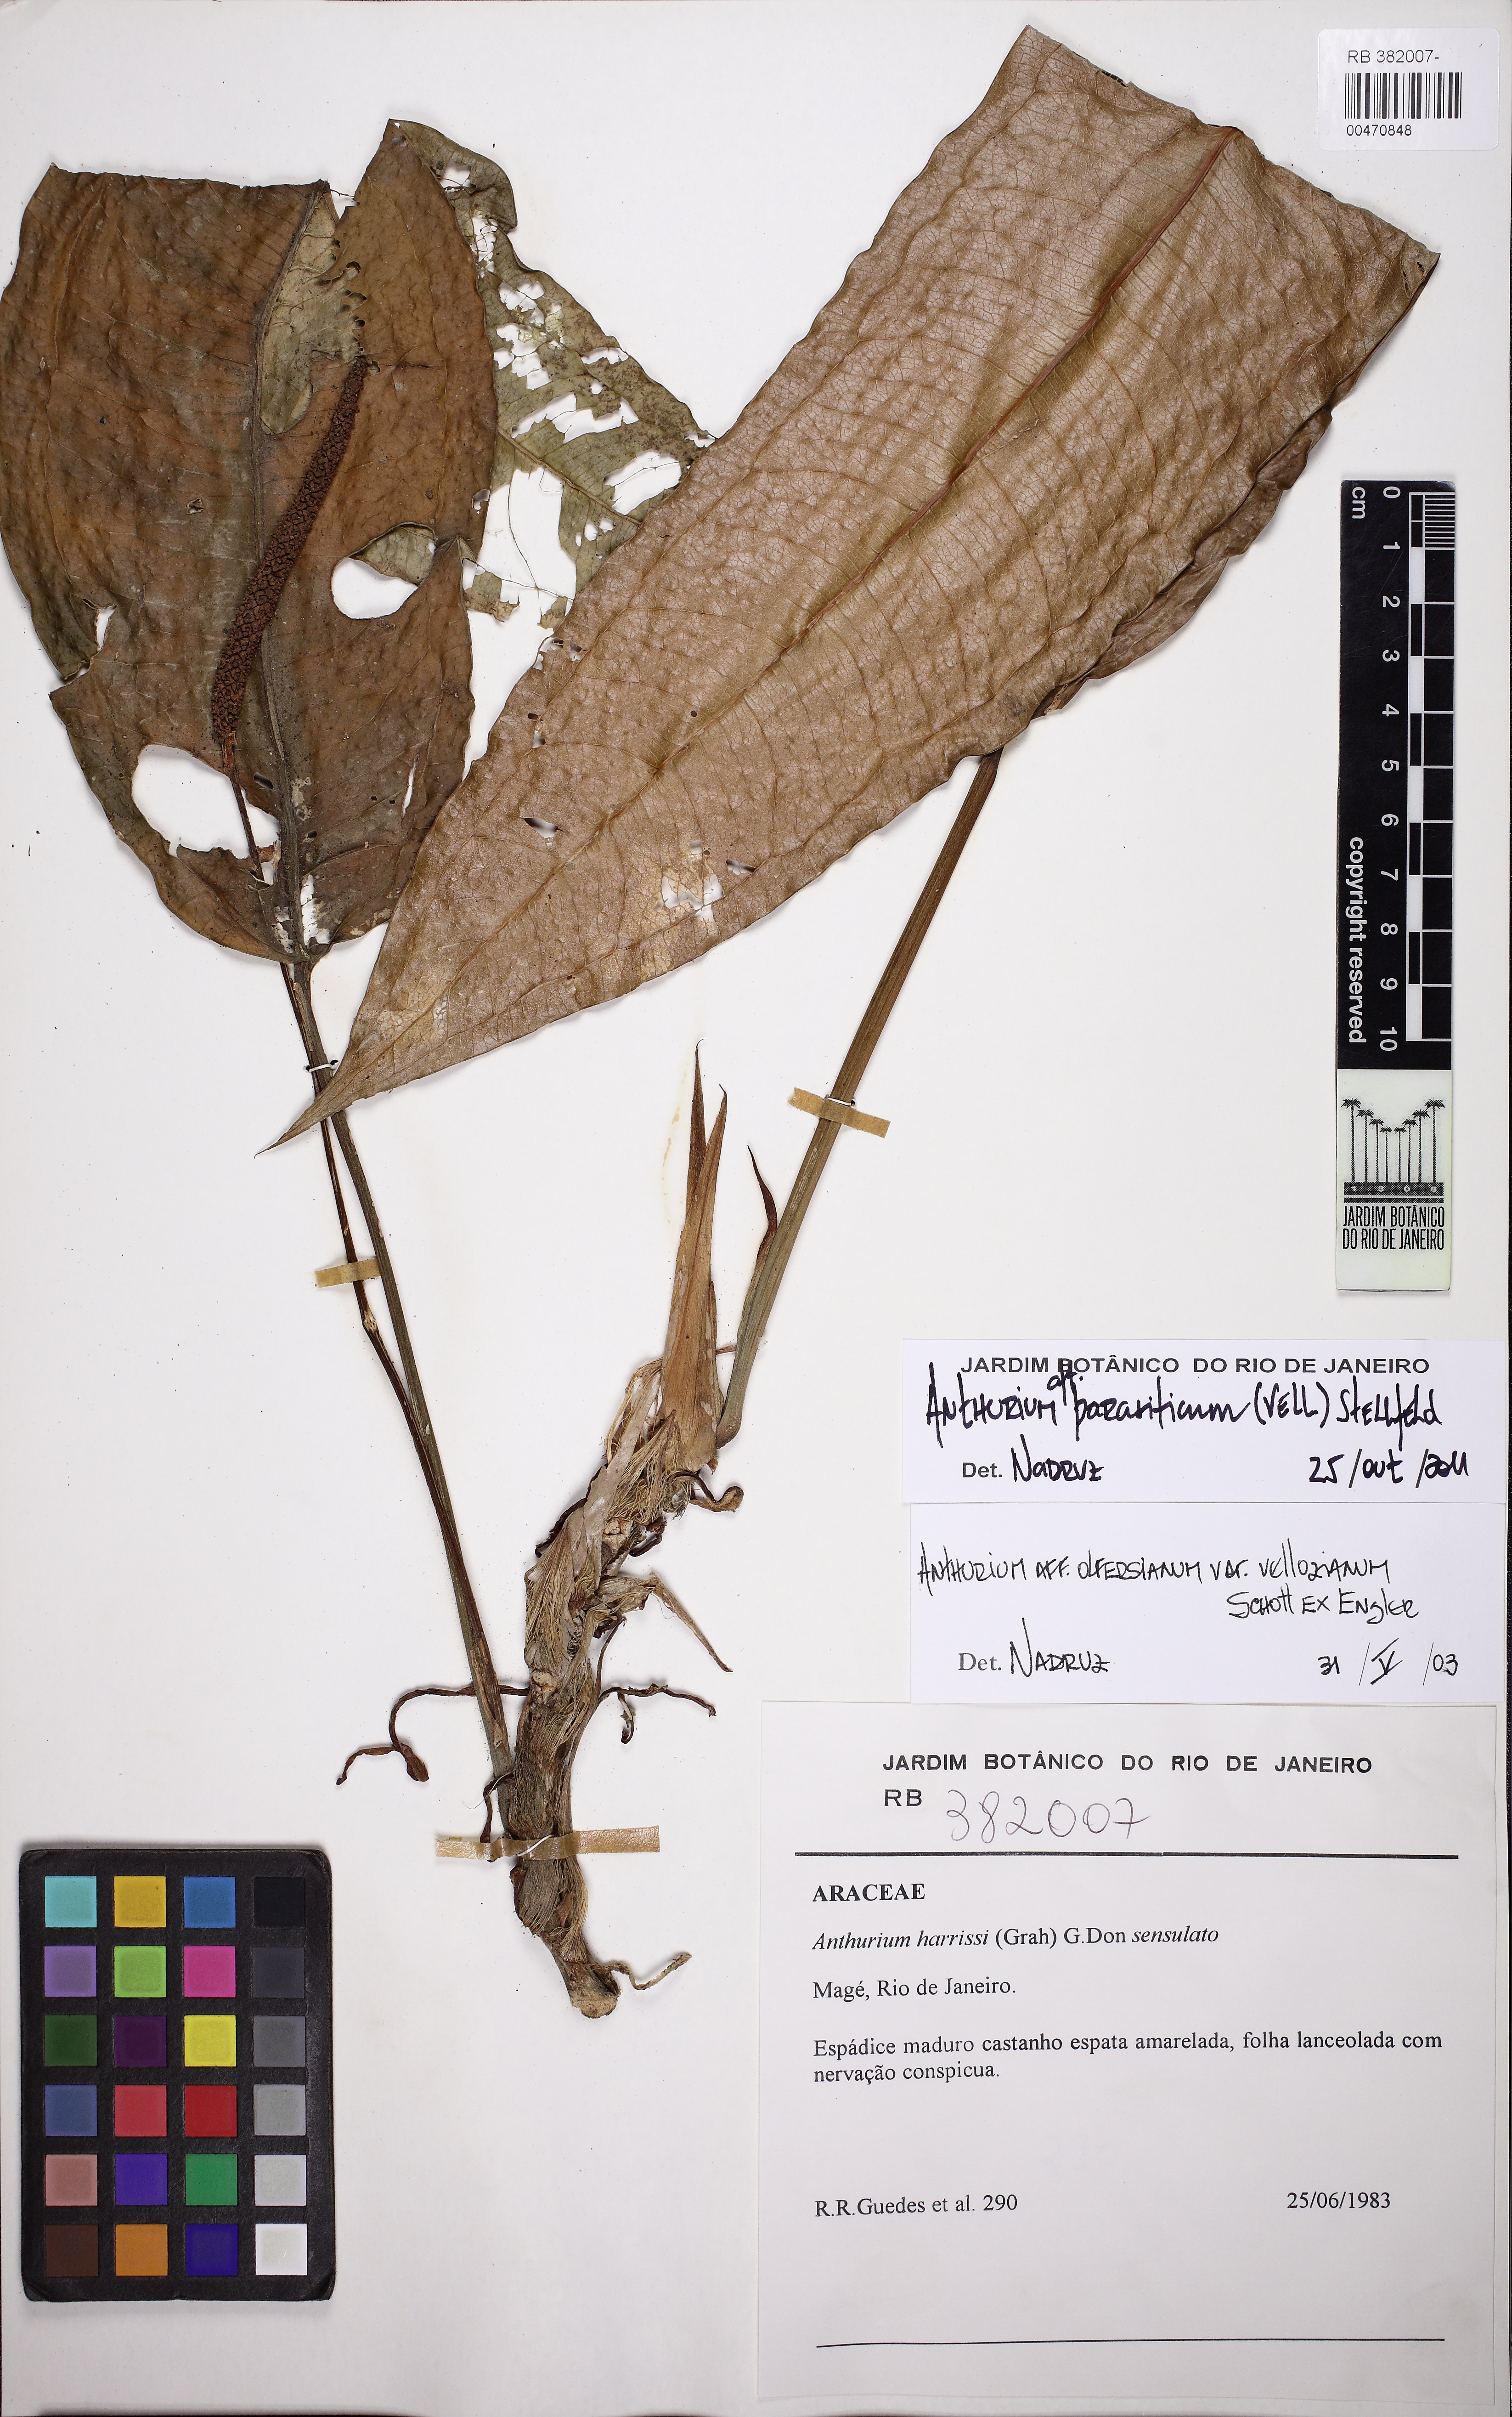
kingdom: Plantae
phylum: Tracheophyta
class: Liliopsida
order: Alismatales
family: Araceae
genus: Anthurium
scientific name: Anthurium parasiticum
